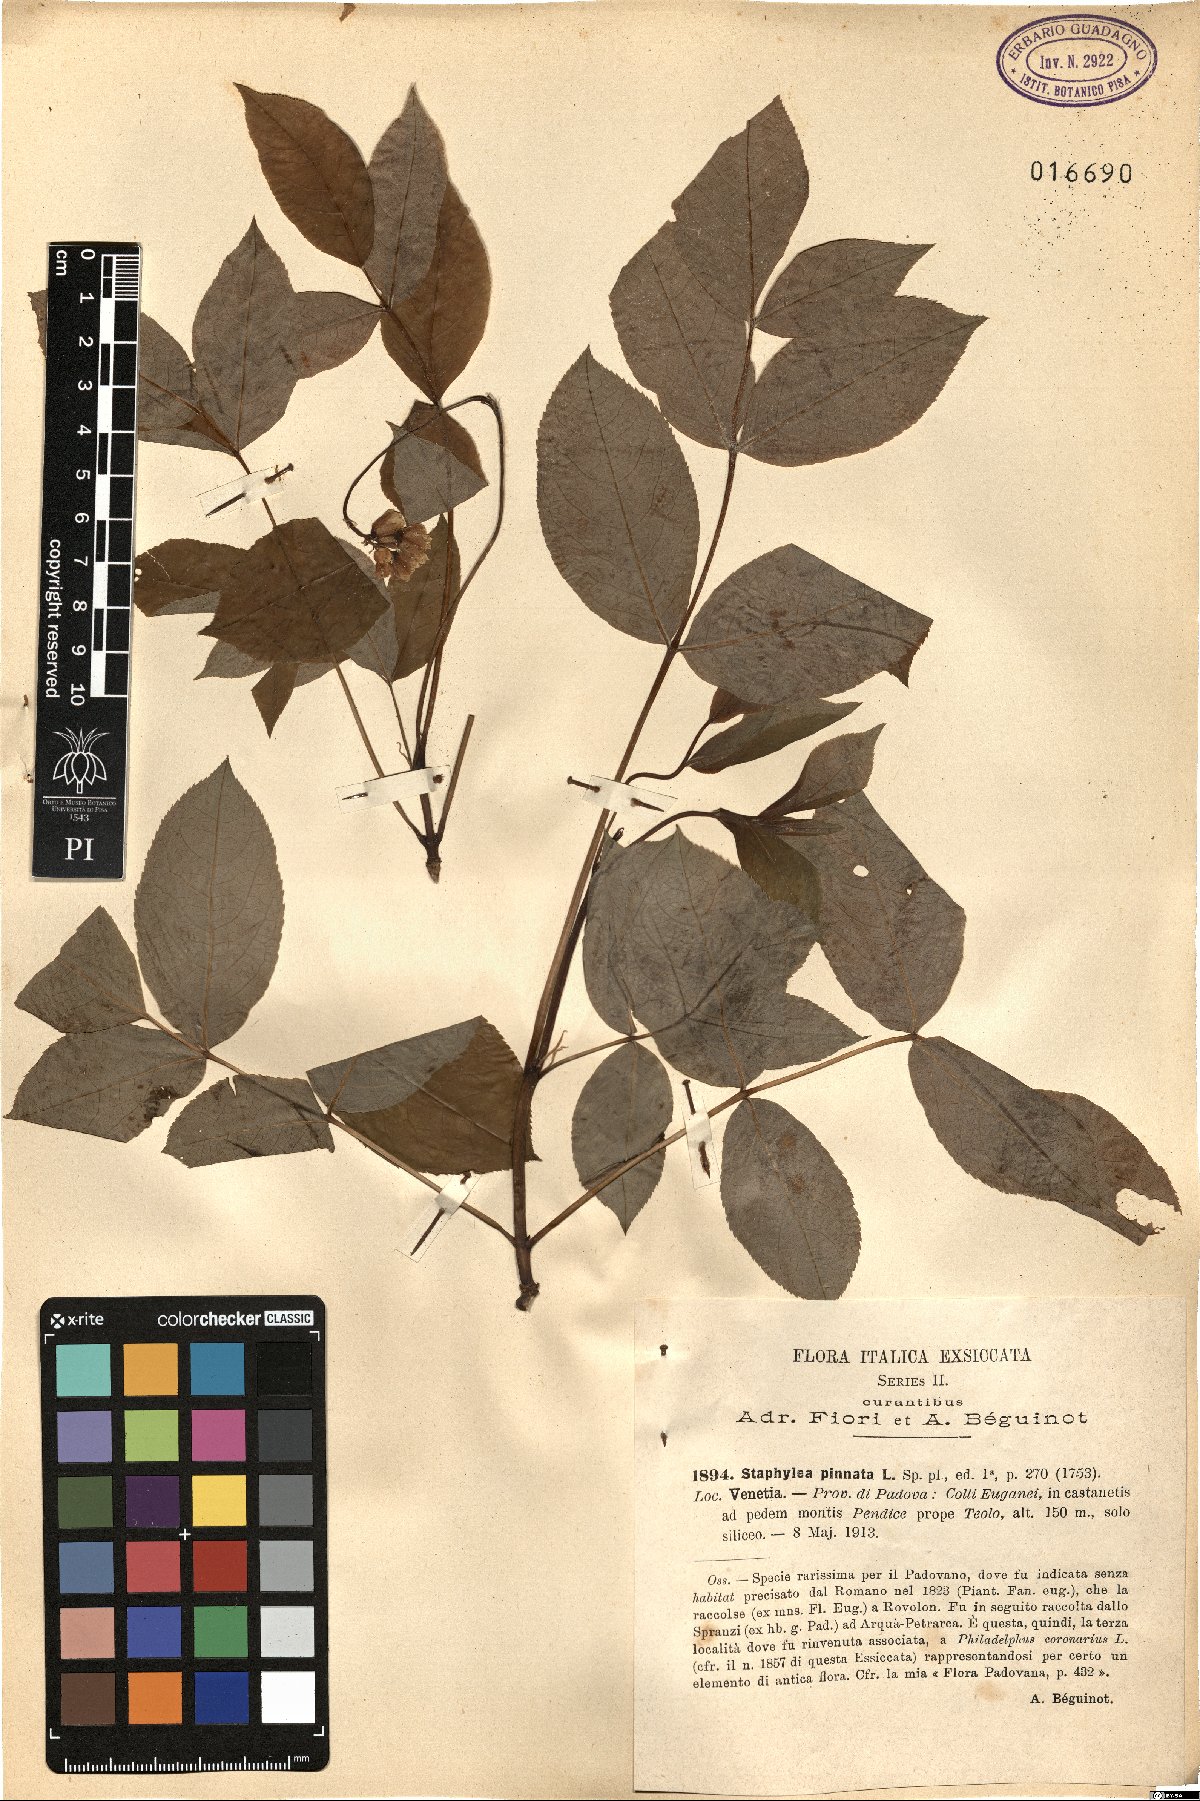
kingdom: Plantae
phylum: Tracheophyta
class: Magnoliopsida
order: Crossosomatales
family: Staphyleaceae
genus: Staphylea
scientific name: Staphylea pinnata
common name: Bladdernut
